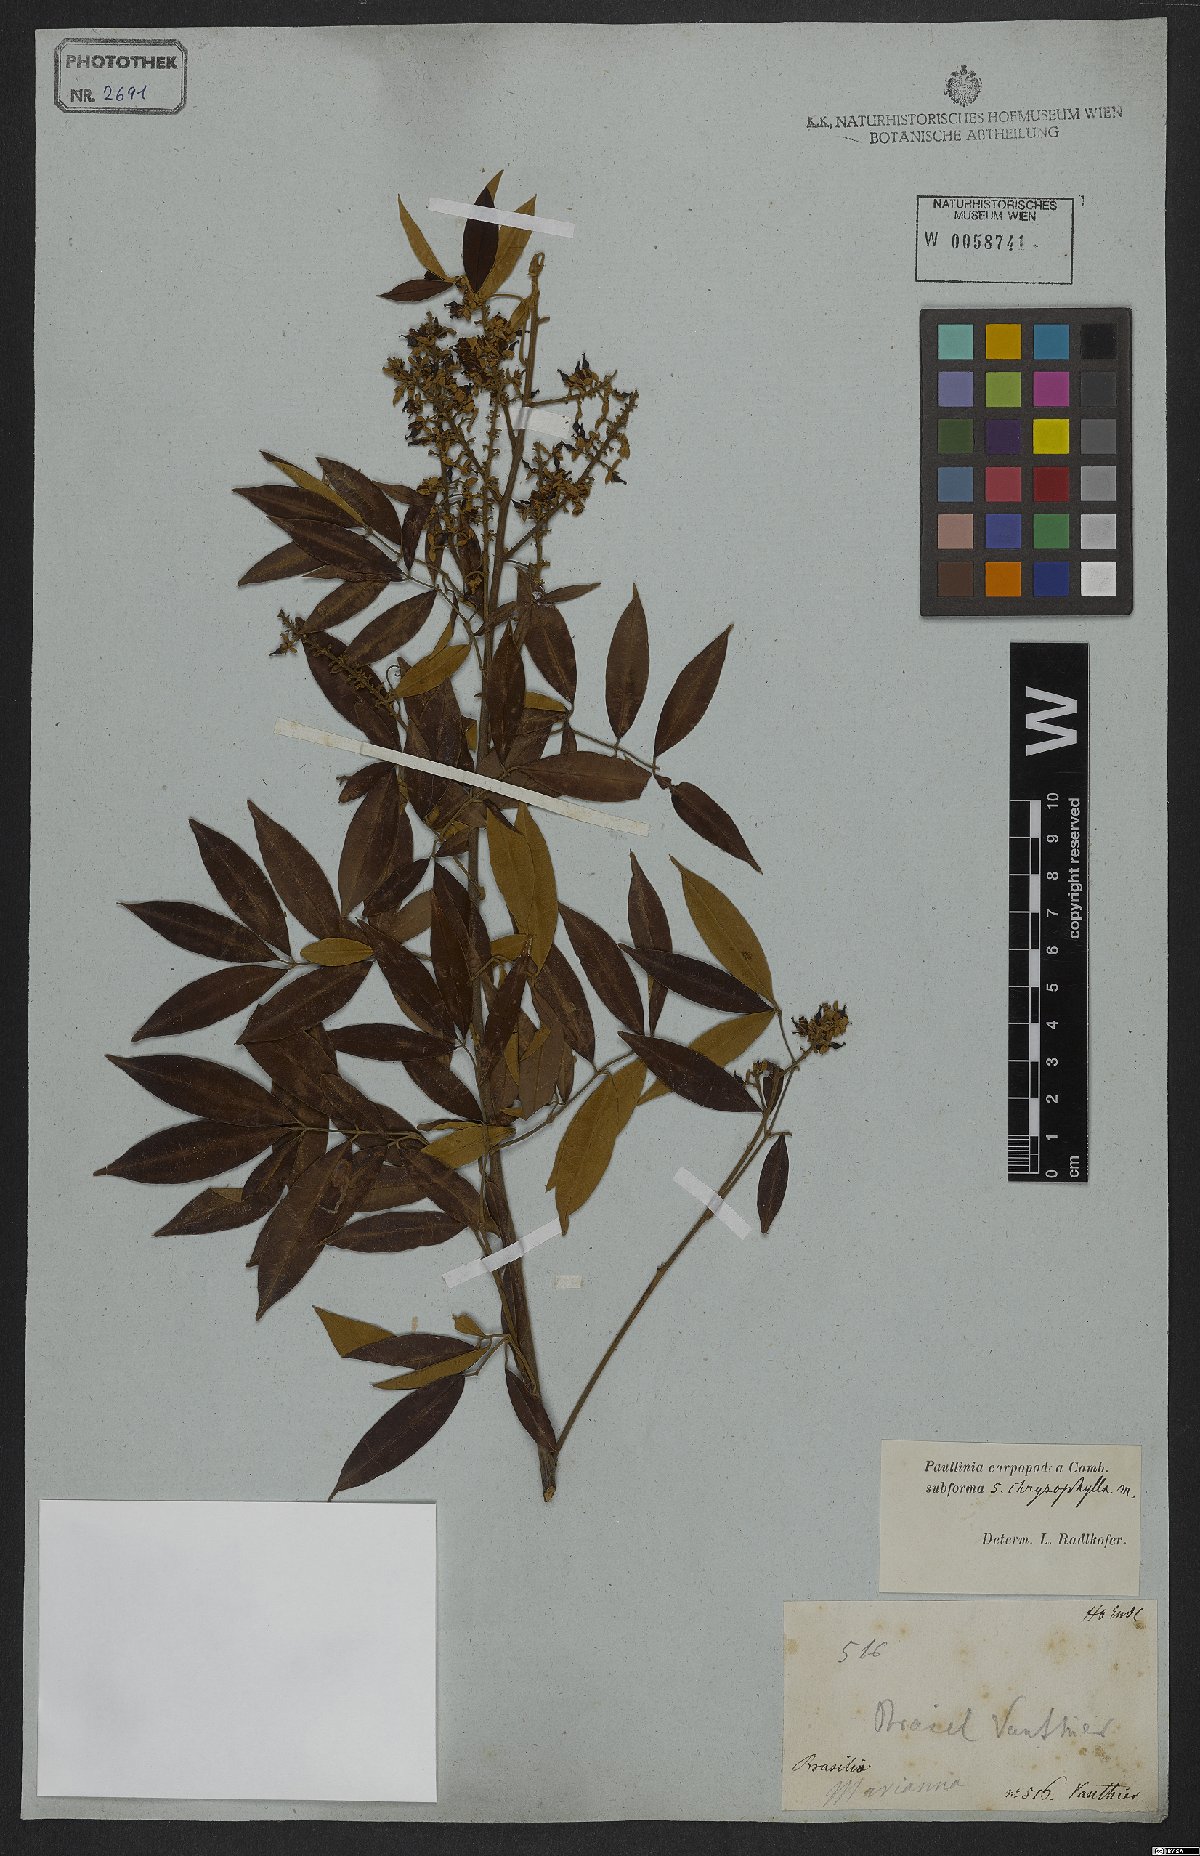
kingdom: Plantae
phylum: Tracheophyta
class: Magnoliopsida
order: Sapindales
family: Sapindaceae
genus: Paullinia
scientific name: Paullinia carpopoda
